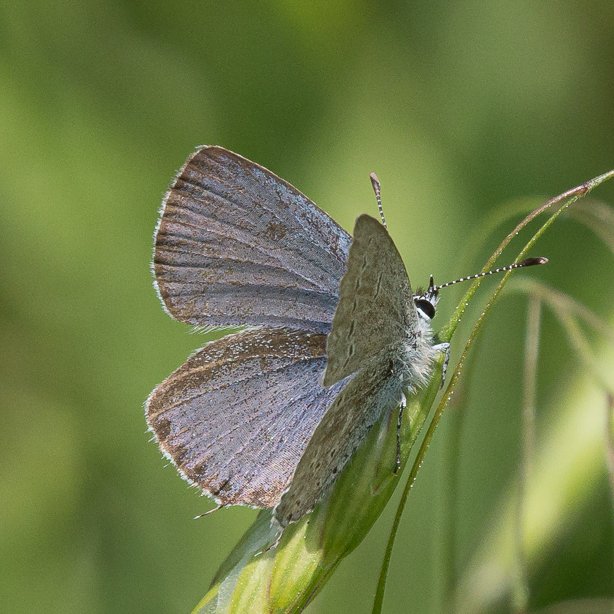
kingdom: Animalia
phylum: Arthropoda
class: Insecta
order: Lepidoptera
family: Lycaenidae
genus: Elkalyce
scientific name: Elkalyce amyntula
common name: Western Tailed-Blue
